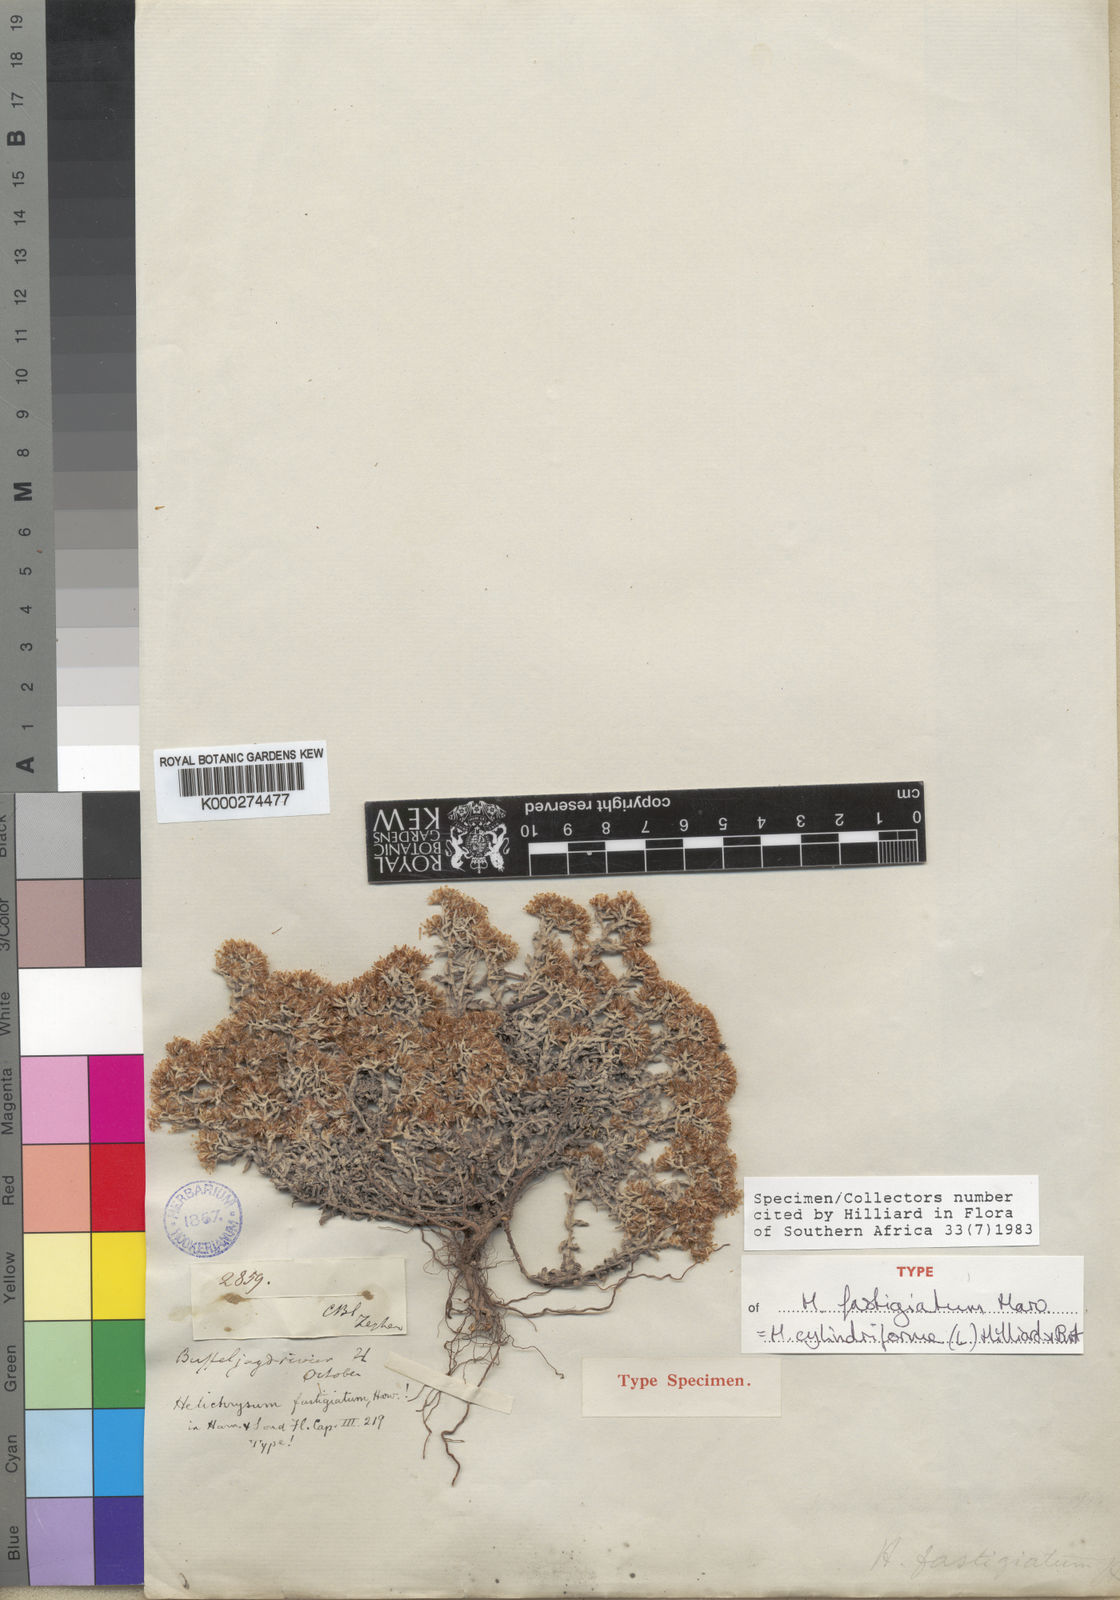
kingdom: Plantae
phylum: Tracheophyta
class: Magnoliopsida
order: Asterales
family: Asteraceae
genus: Helichrysum
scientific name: Helichrysum cylindriflorum
